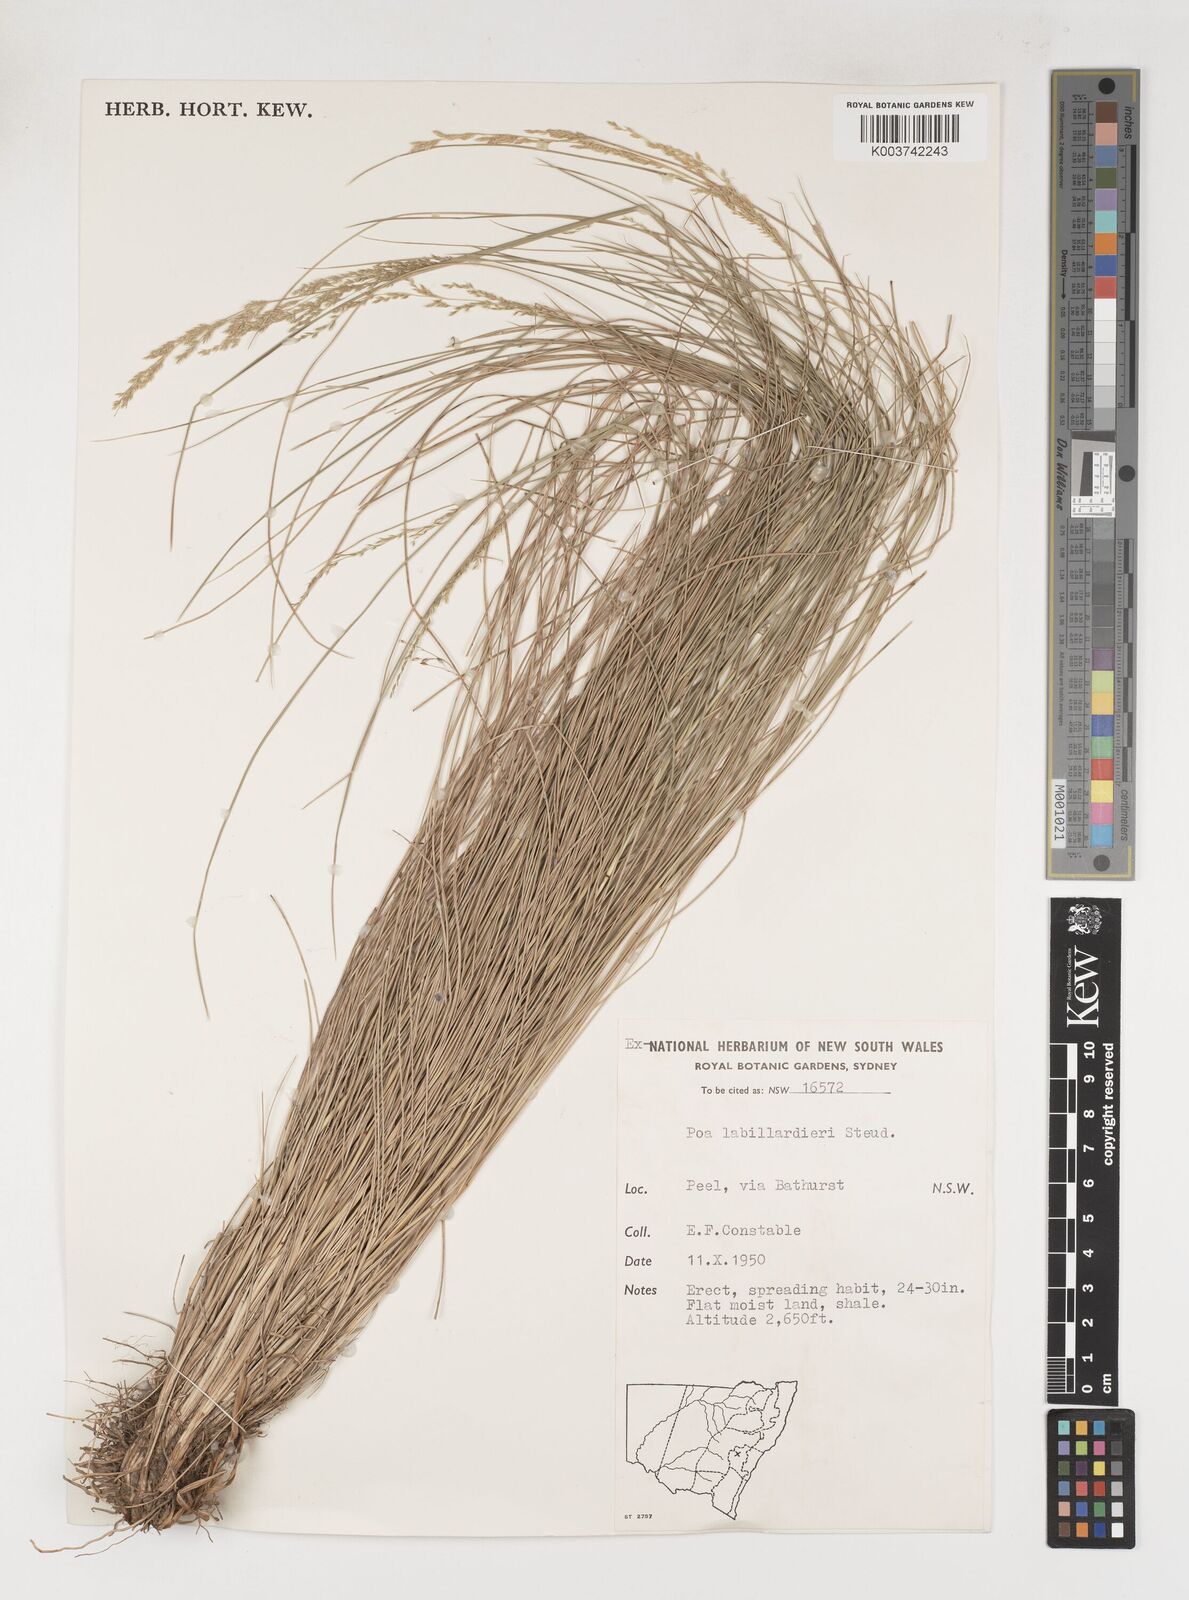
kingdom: Plantae
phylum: Tracheophyta
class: Liliopsida
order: Poales
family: Poaceae
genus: Poa
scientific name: Poa labillardierei
